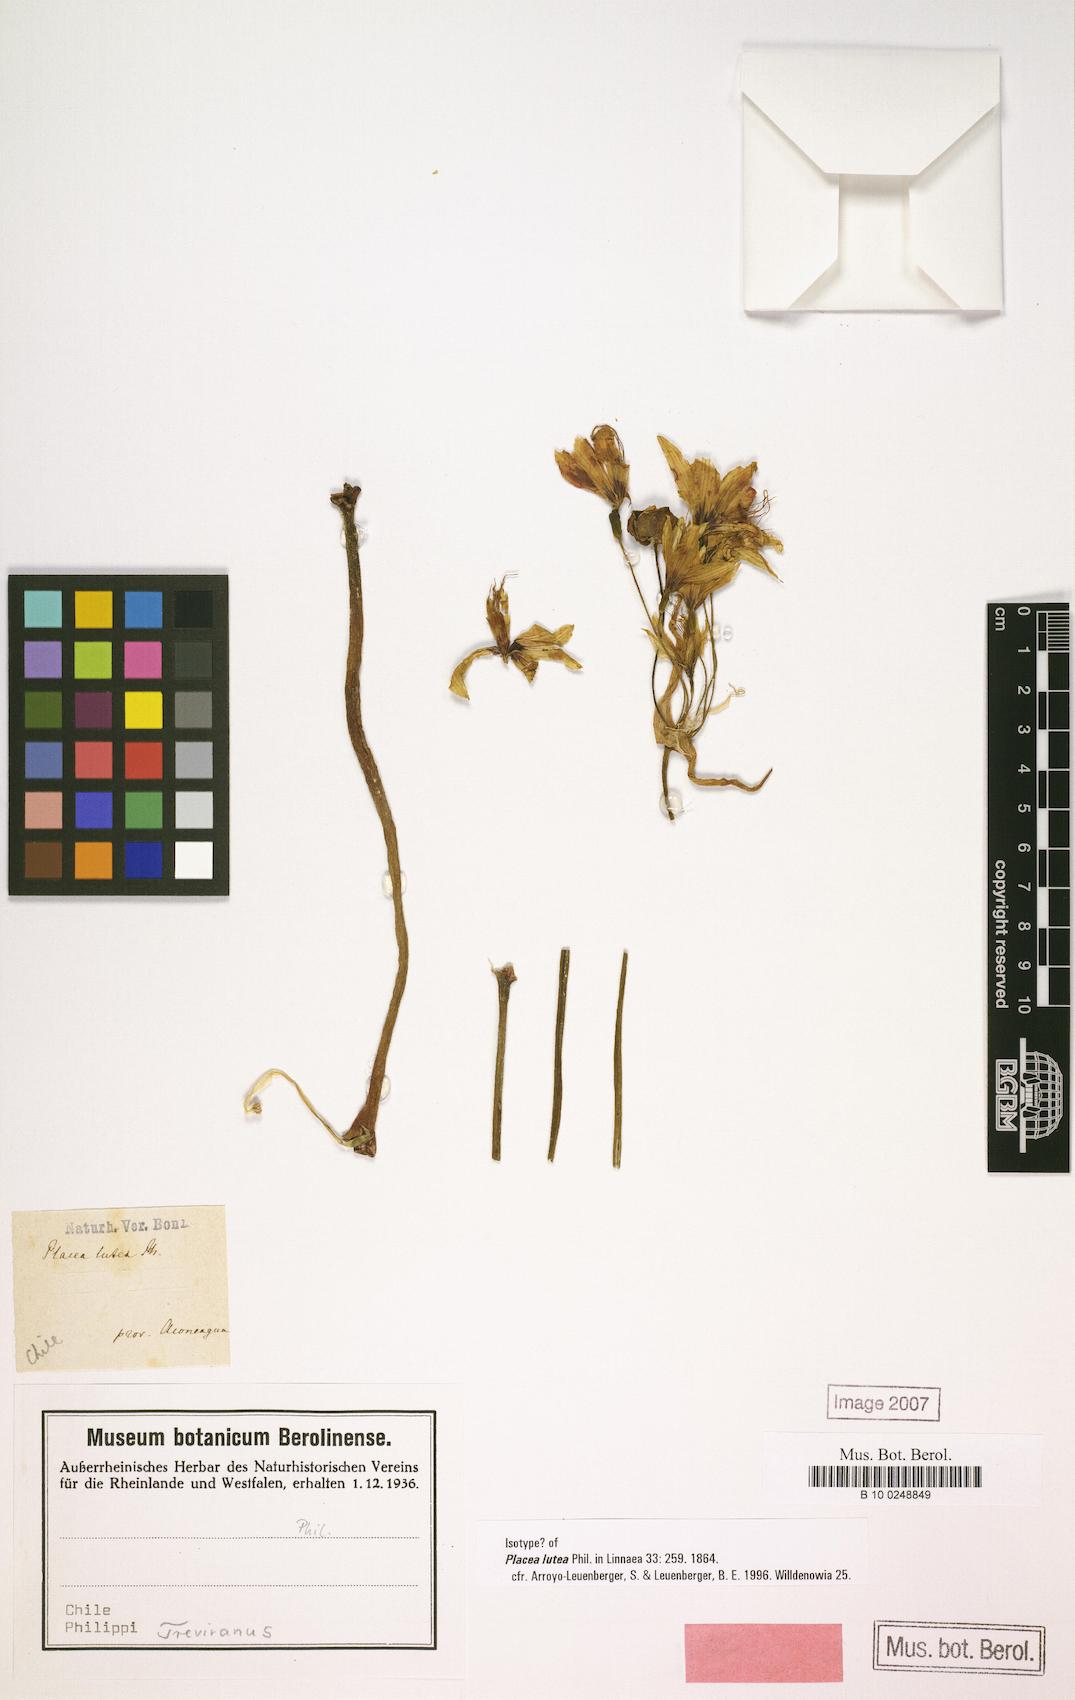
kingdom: Plantae
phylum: Tracheophyta
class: Liliopsida
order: Asparagales
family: Amaryllidaceae
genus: Phycella
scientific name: Phycella lutea
